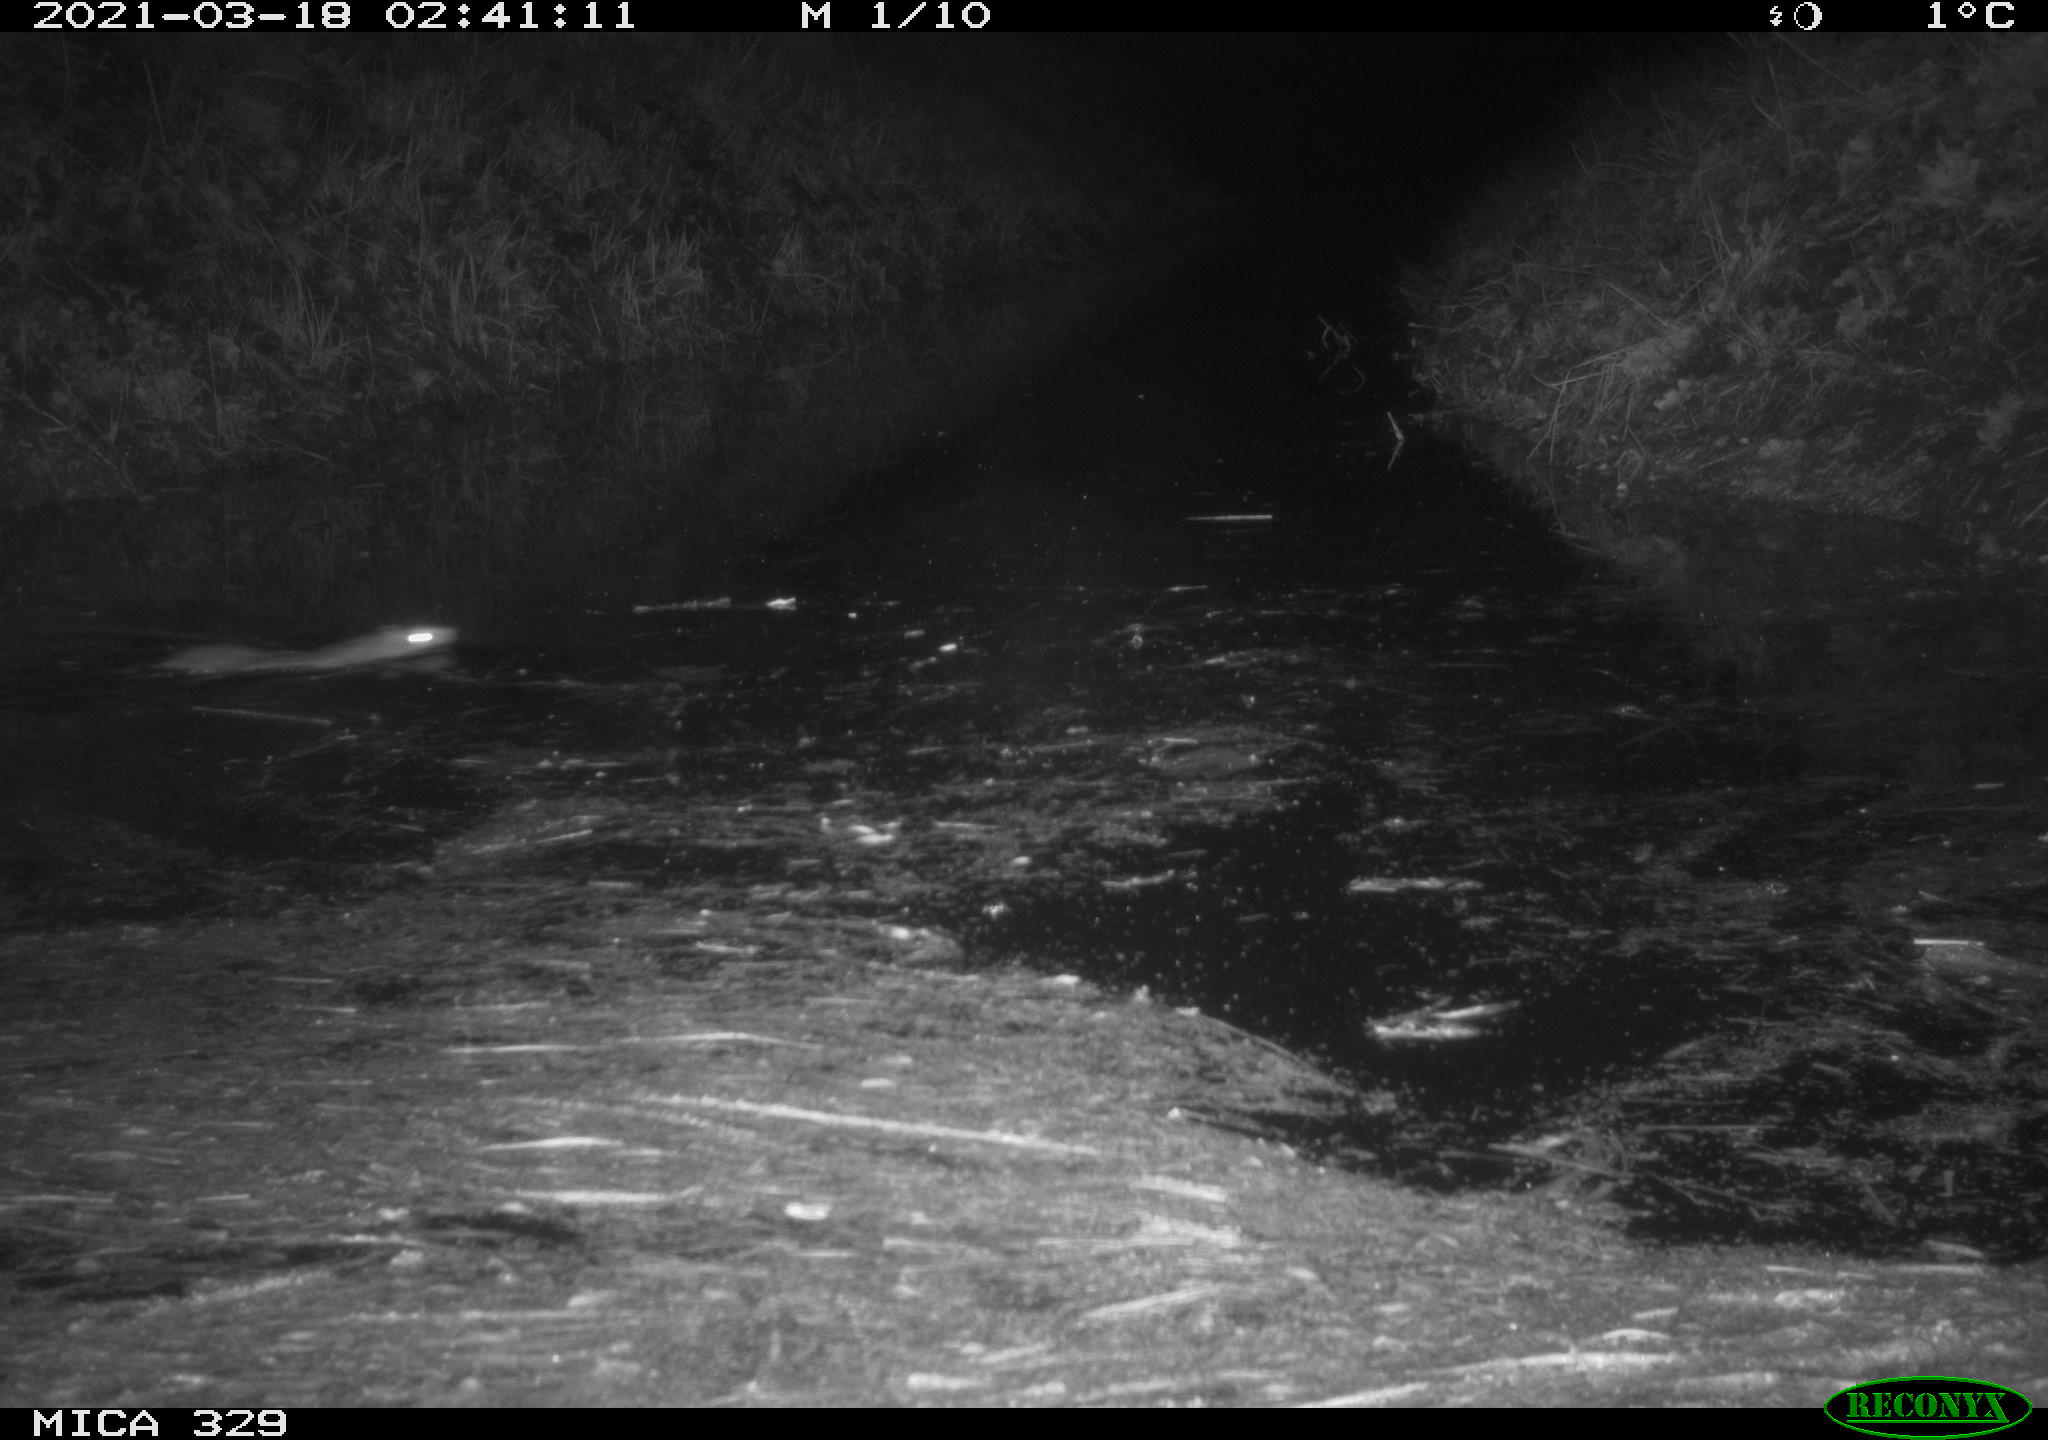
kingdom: Animalia
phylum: Chordata
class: Mammalia
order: Rodentia
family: Muridae
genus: Rattus
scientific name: Rattus norvegicus
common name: Brown rat
